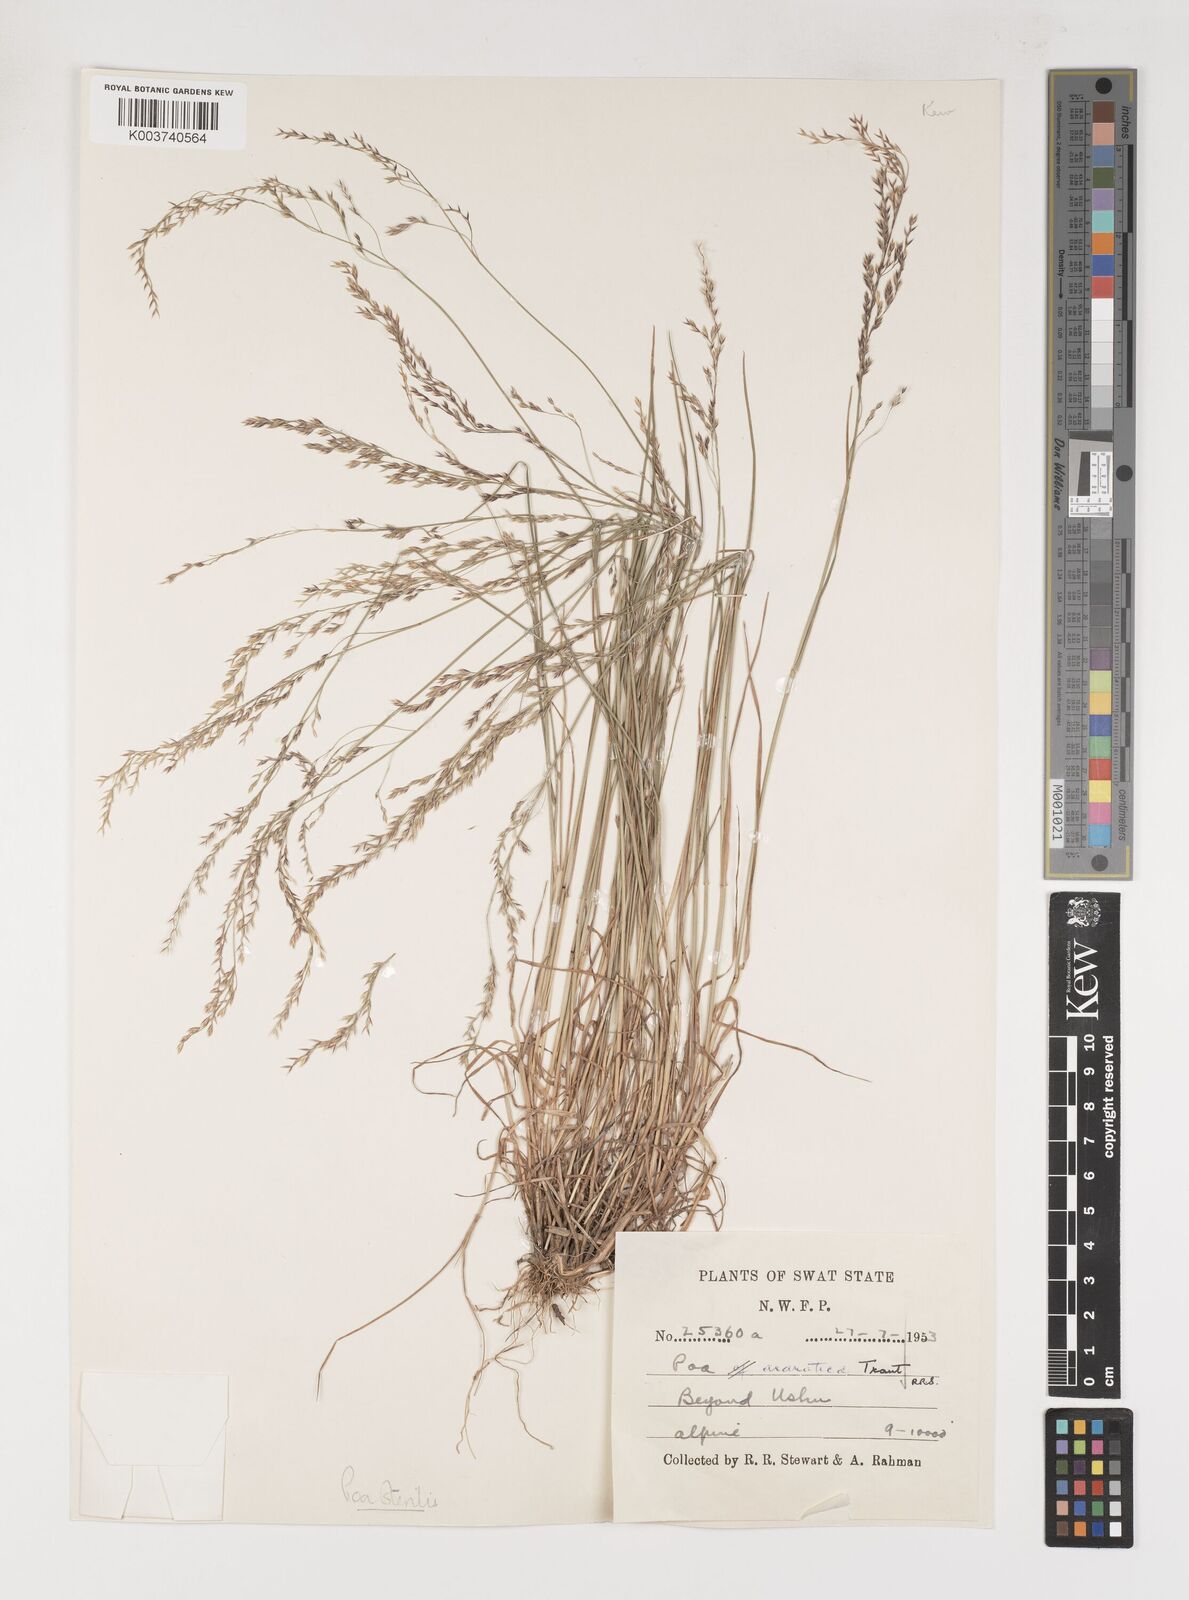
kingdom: Plantae
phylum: Tracheophyta
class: Liliopsida
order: Poales
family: Poaceae
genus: Poa
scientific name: Poa sterilis
